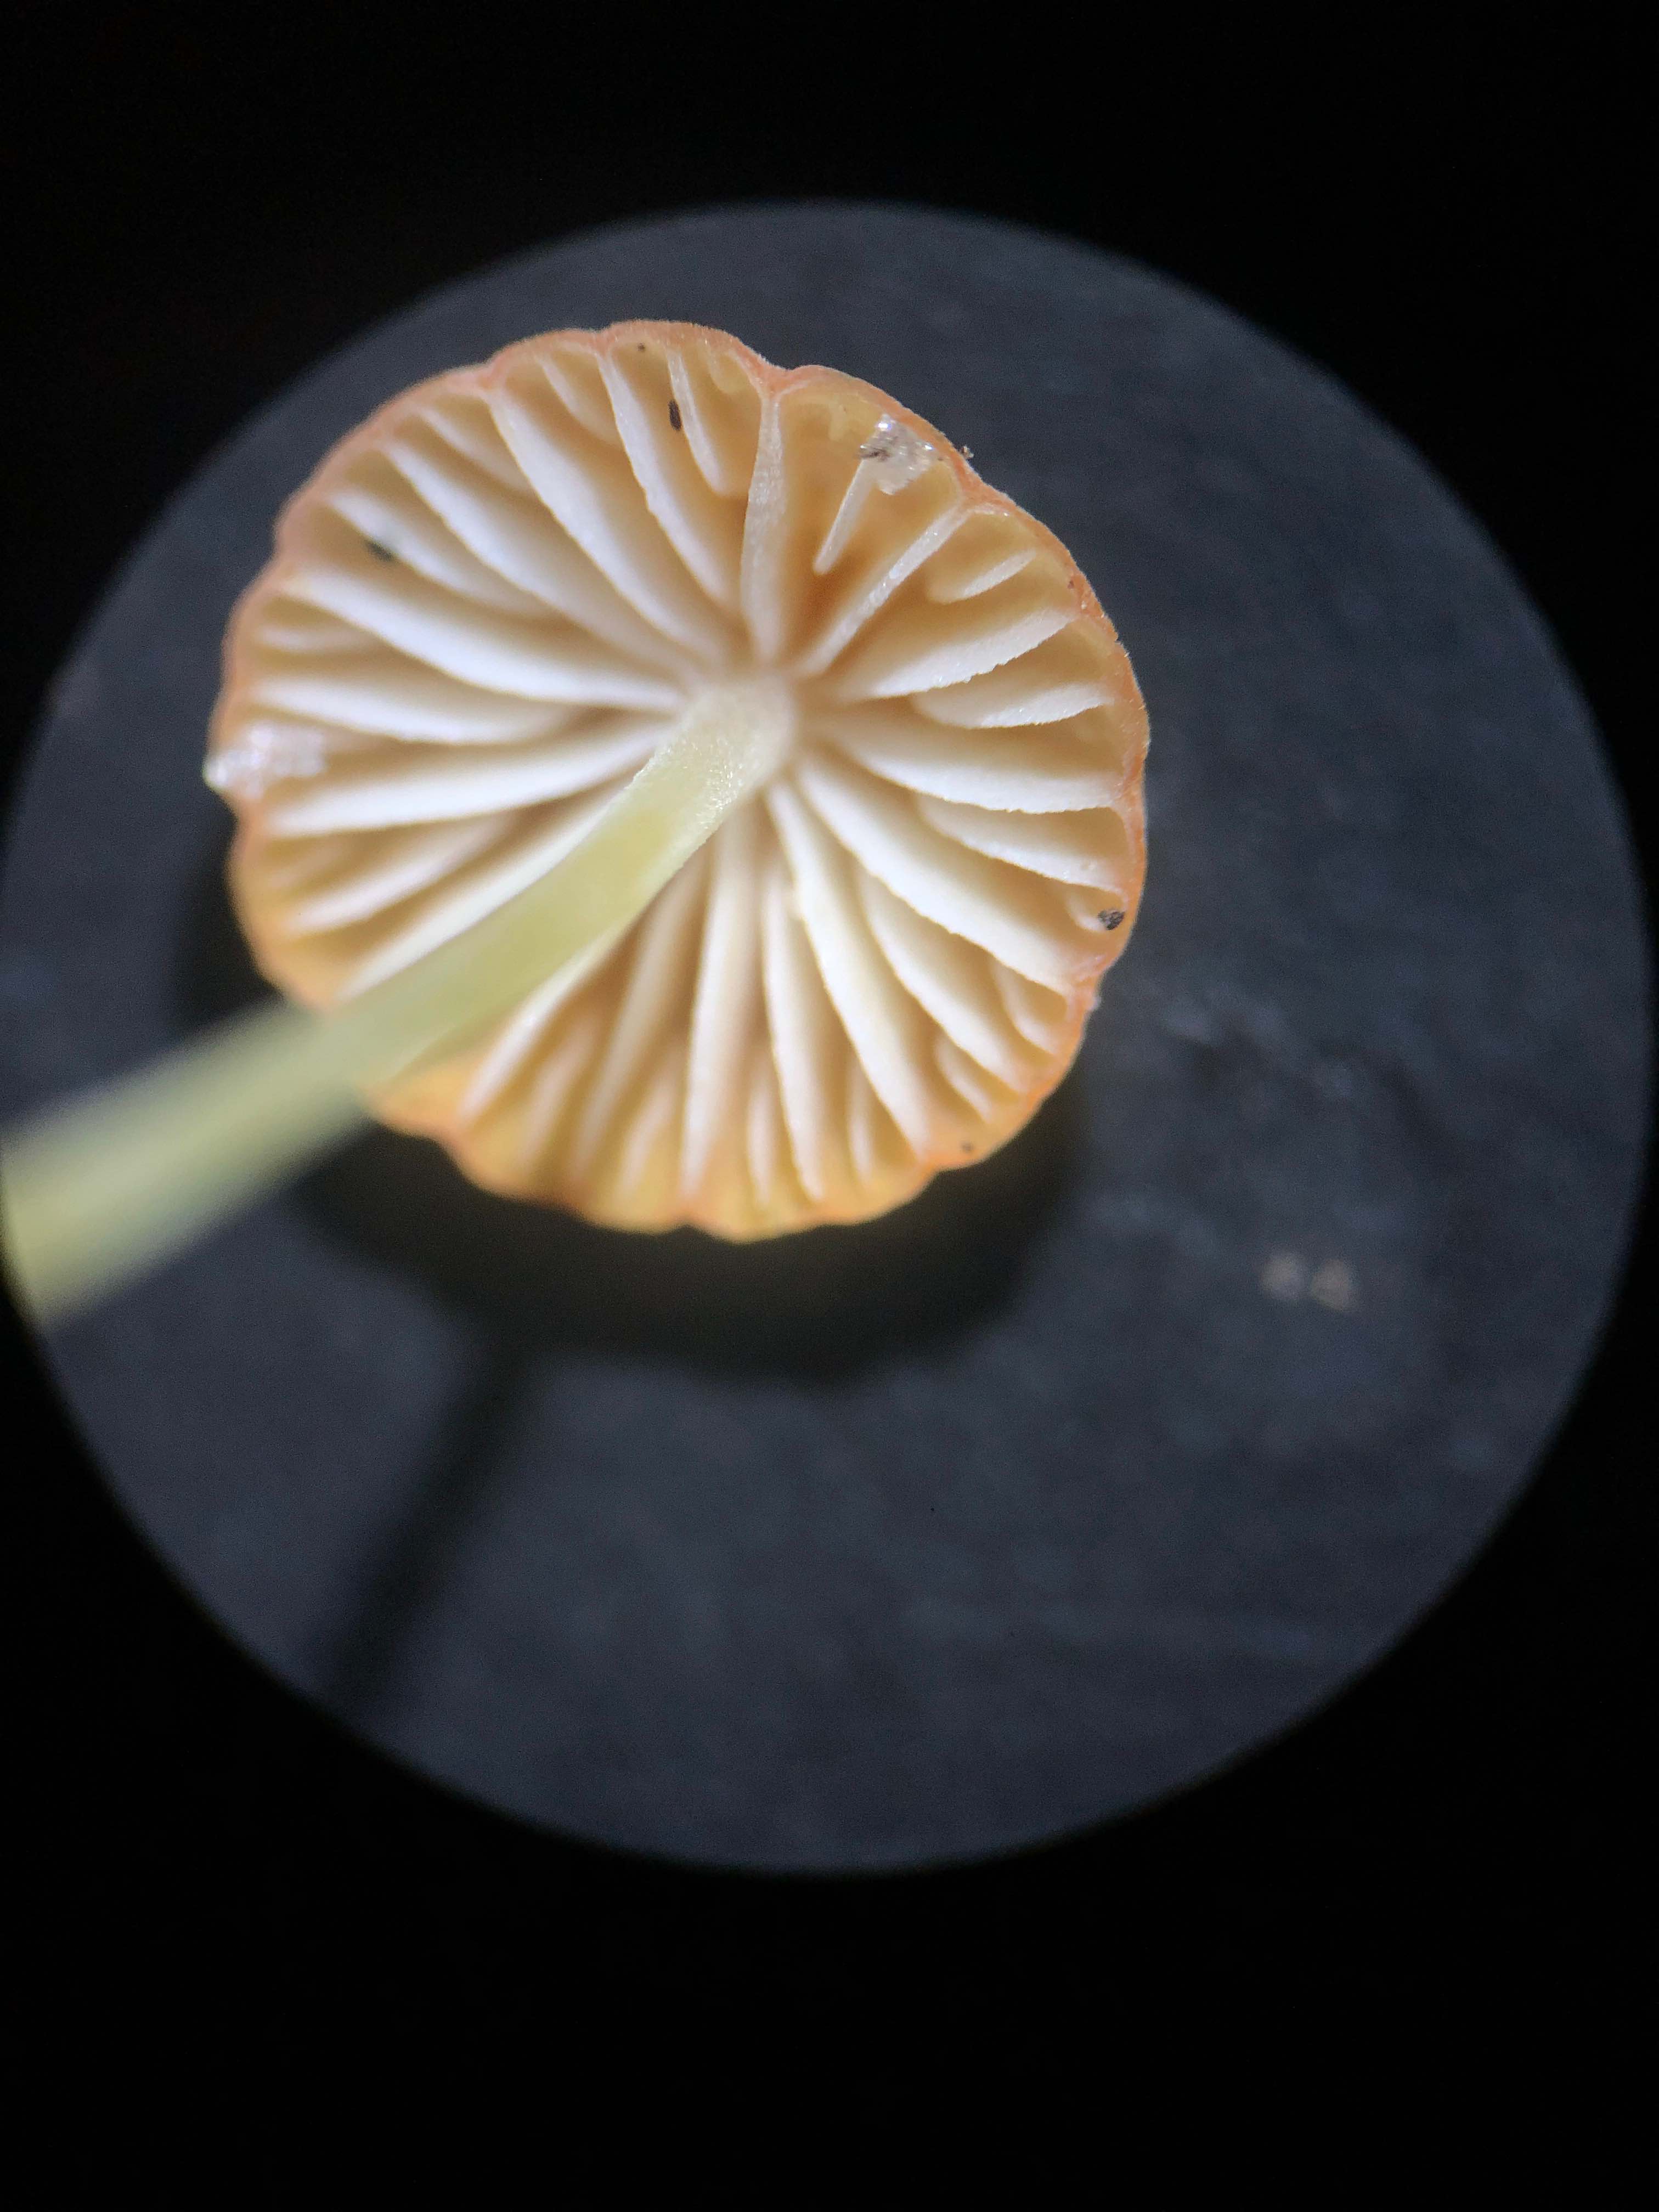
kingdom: Fungi
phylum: Basidiomycota
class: Agaricomycetes
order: Agaricales
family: Mycenaceae
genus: Mycena
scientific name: Mycena acicula
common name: orange huesvamp
